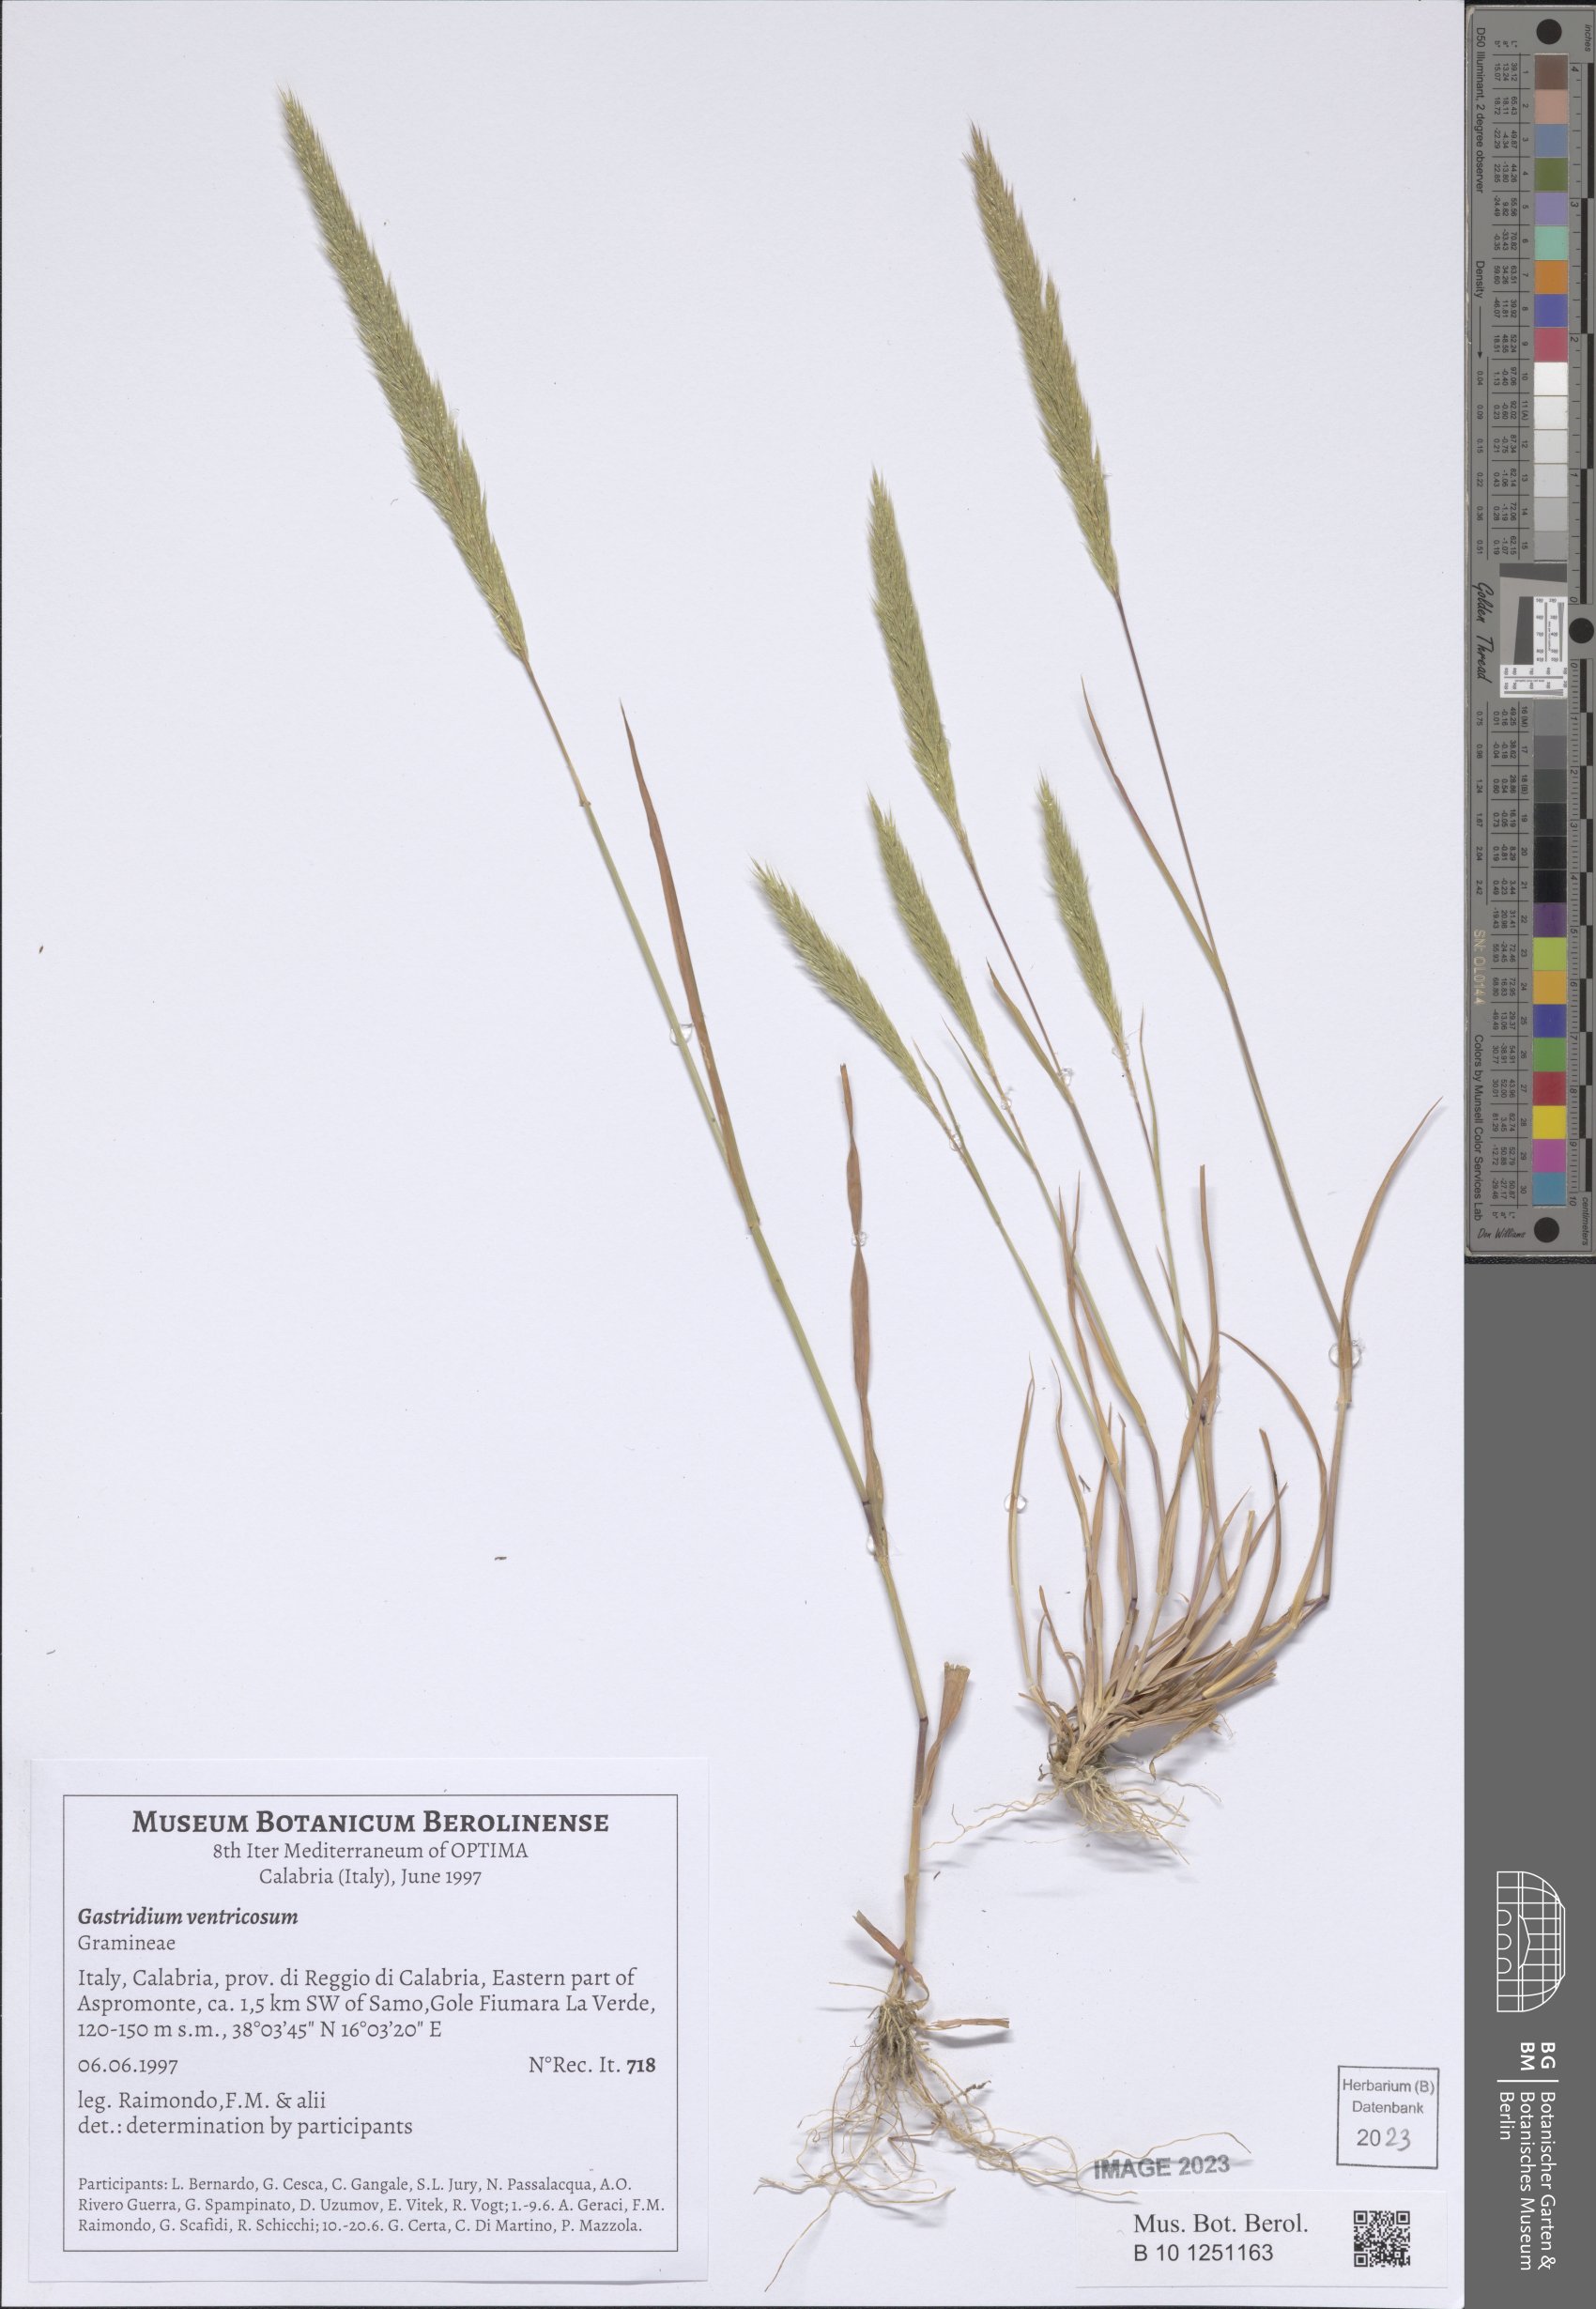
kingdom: Plantae
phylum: Tracheophyta
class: Liliopsida
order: Poales
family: Poaceae
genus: Gastridium
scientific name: Gastridium ventricosum
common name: Nit-grass
